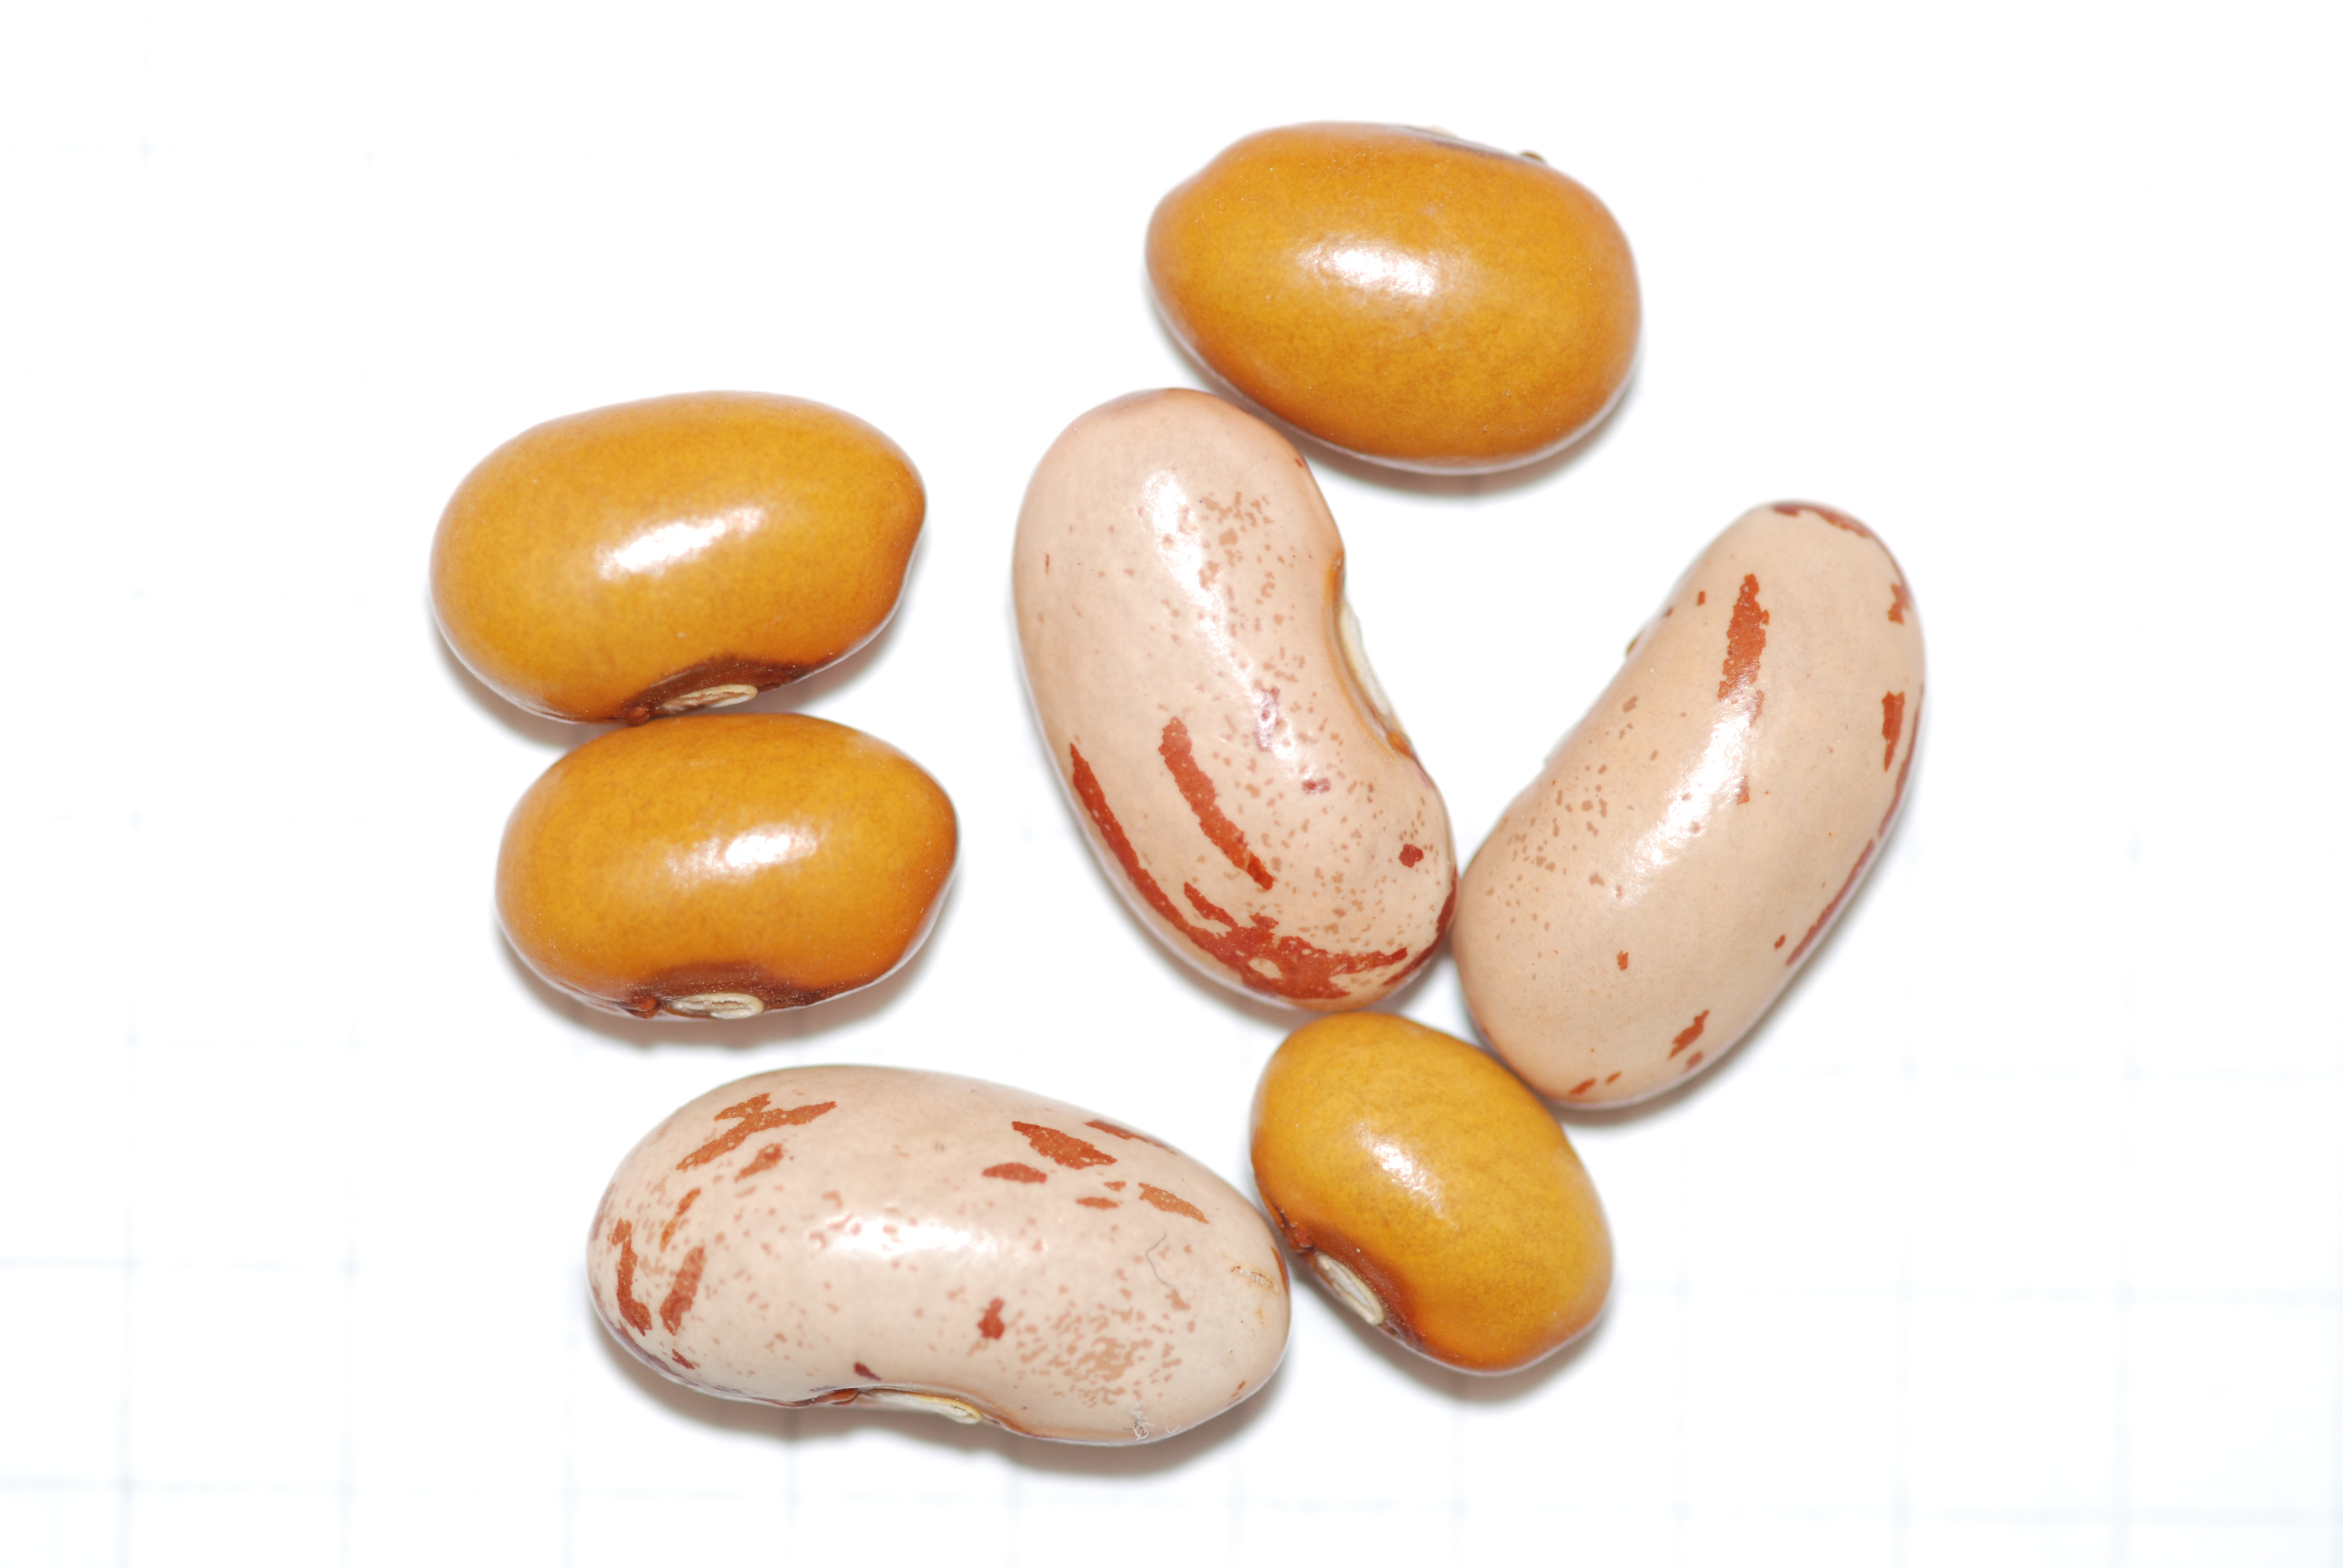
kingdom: Plantae
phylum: Tracheophyta
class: Magnoliopsida
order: Fabales
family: Fabaceae
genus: Phaseolus
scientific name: Phaseolus vulgaris
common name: Bean
